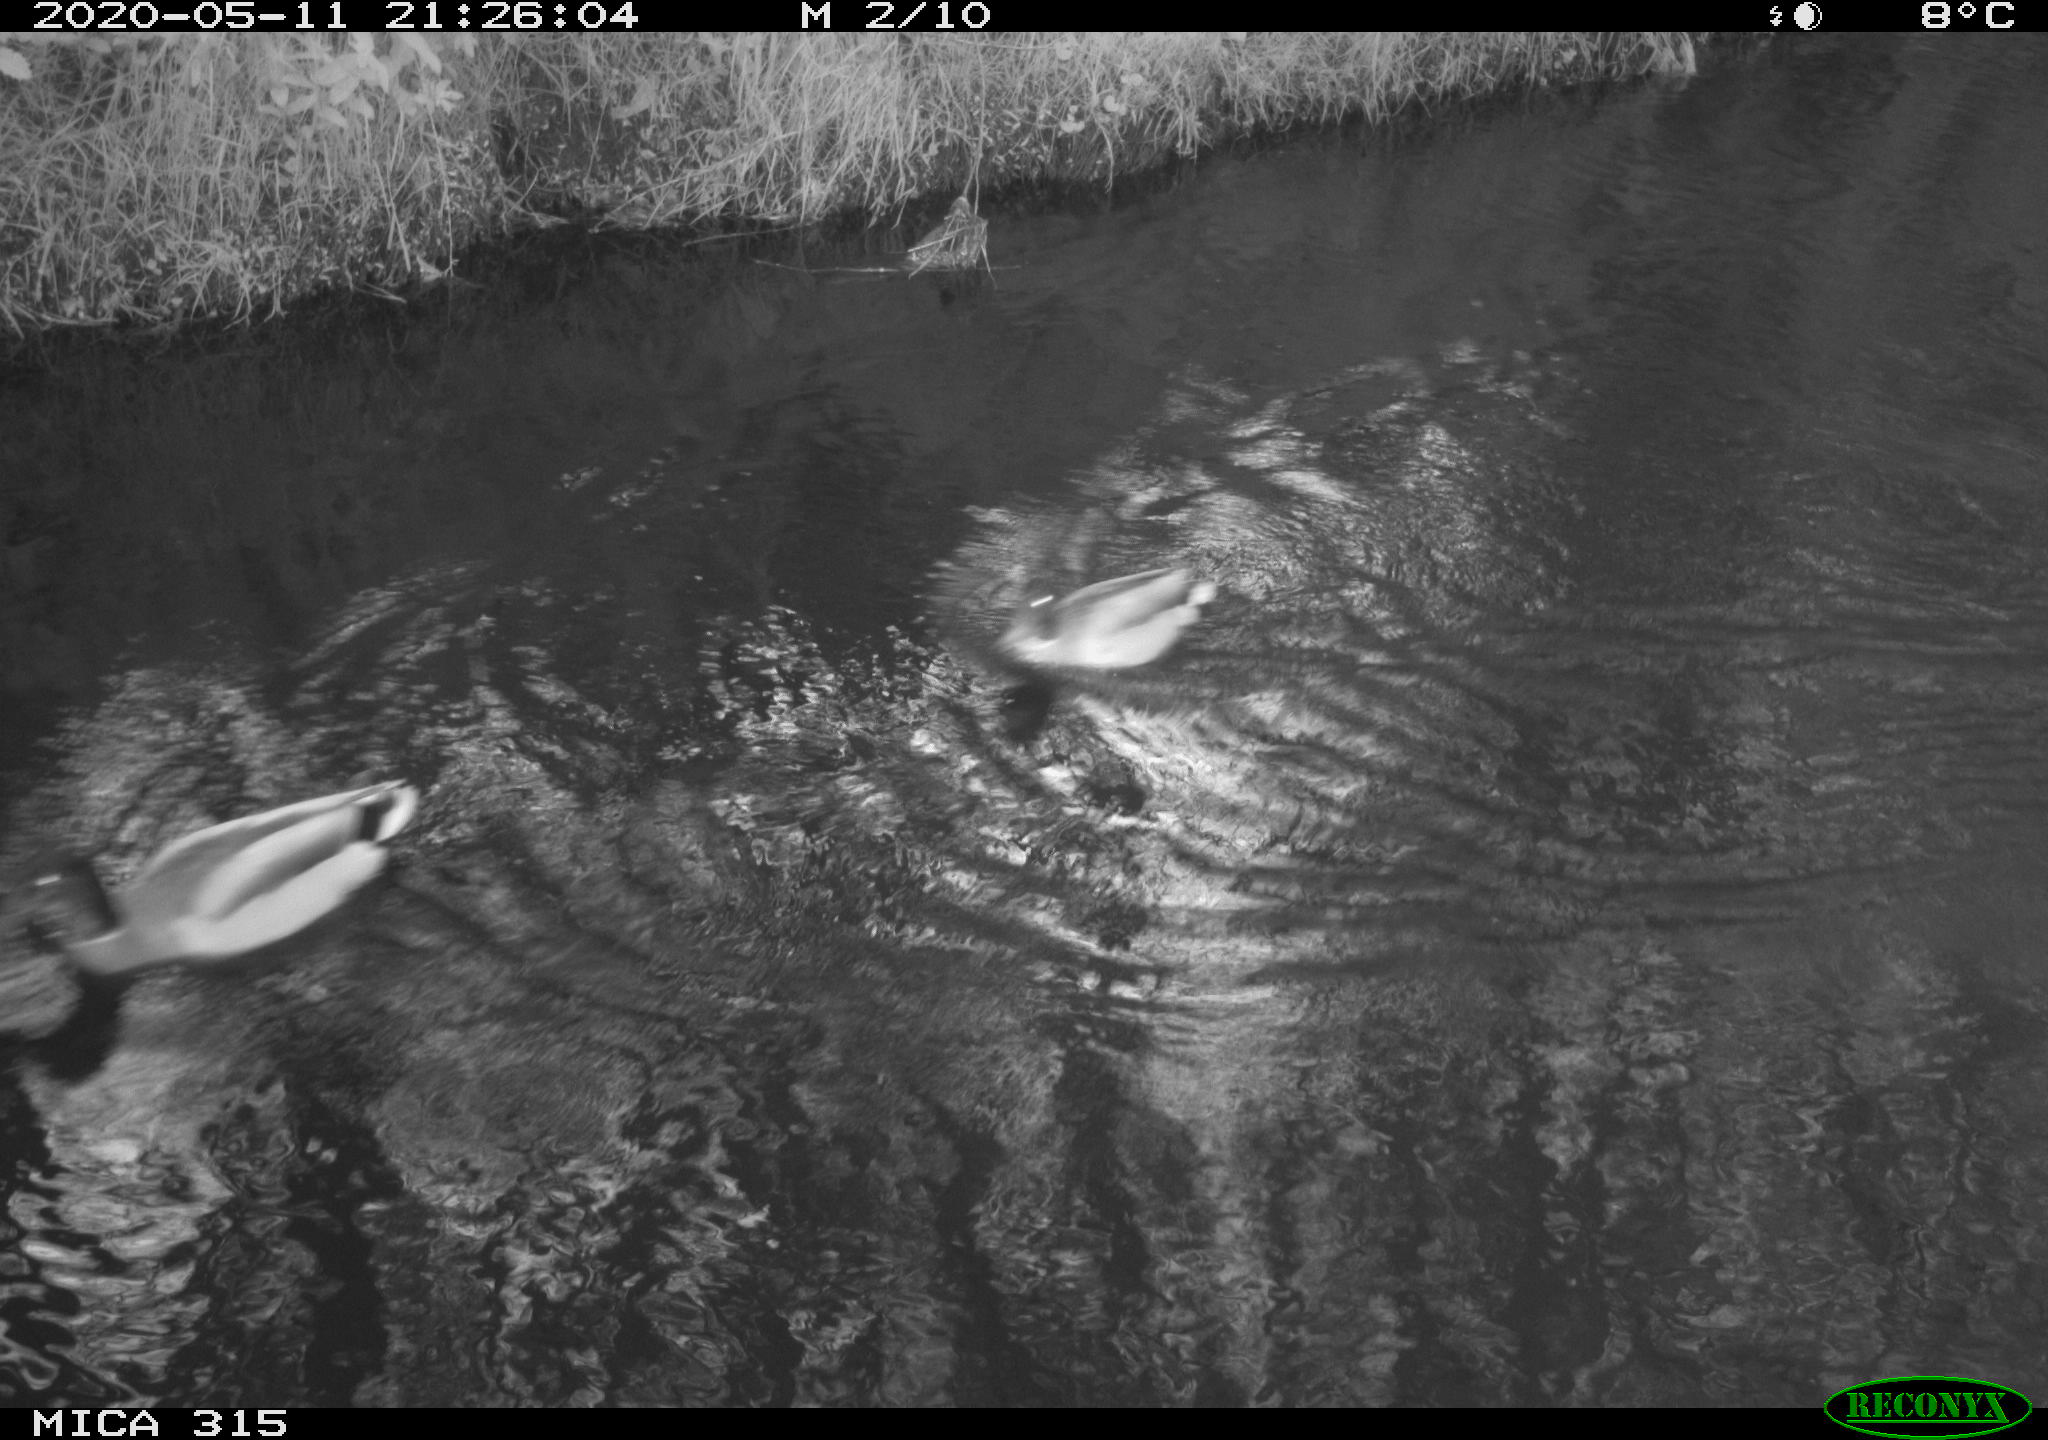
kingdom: Animalia
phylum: Chordata
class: Aves
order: Anseriformes
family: Anatidae
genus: Anas
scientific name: Anas platyrhynchos
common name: Mallard
